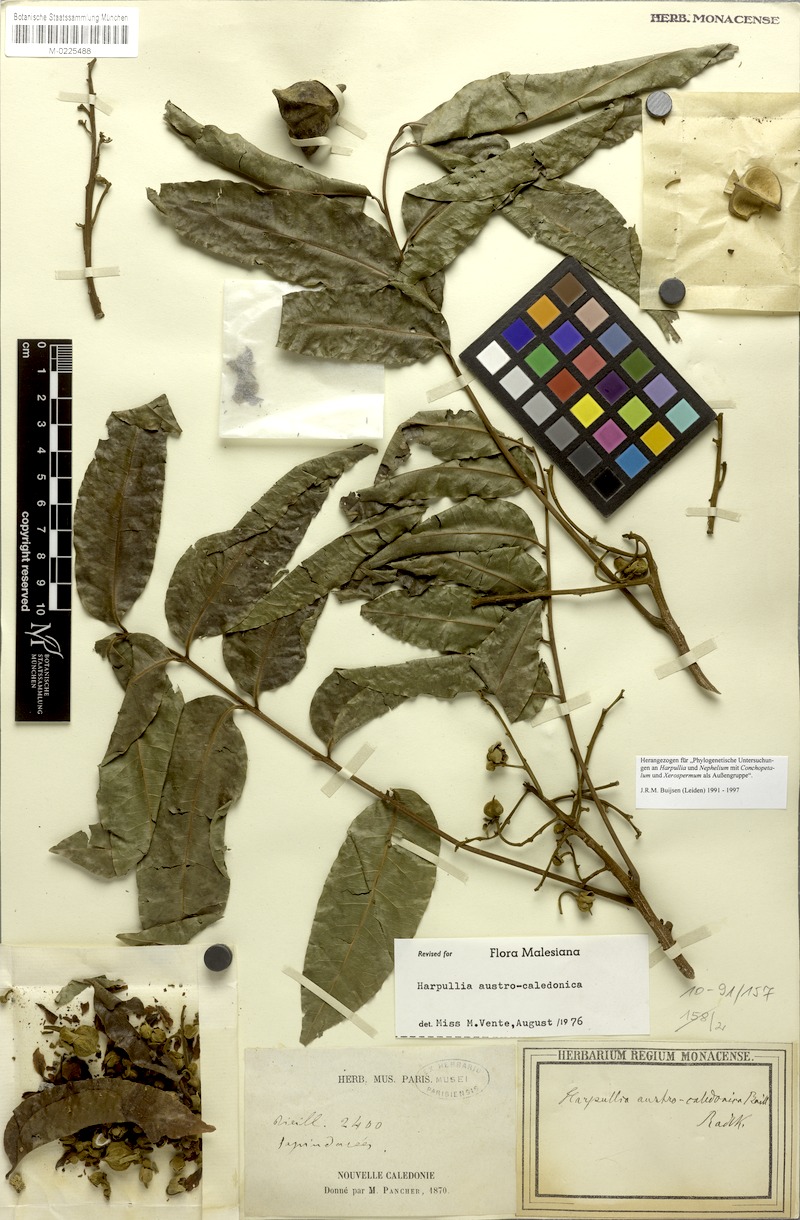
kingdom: Plantae
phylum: Tracheophyta
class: Magnoliopsida
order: Sapindales
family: Sapindaceae
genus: Harpullia
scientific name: Harpullia austrocaledonica
